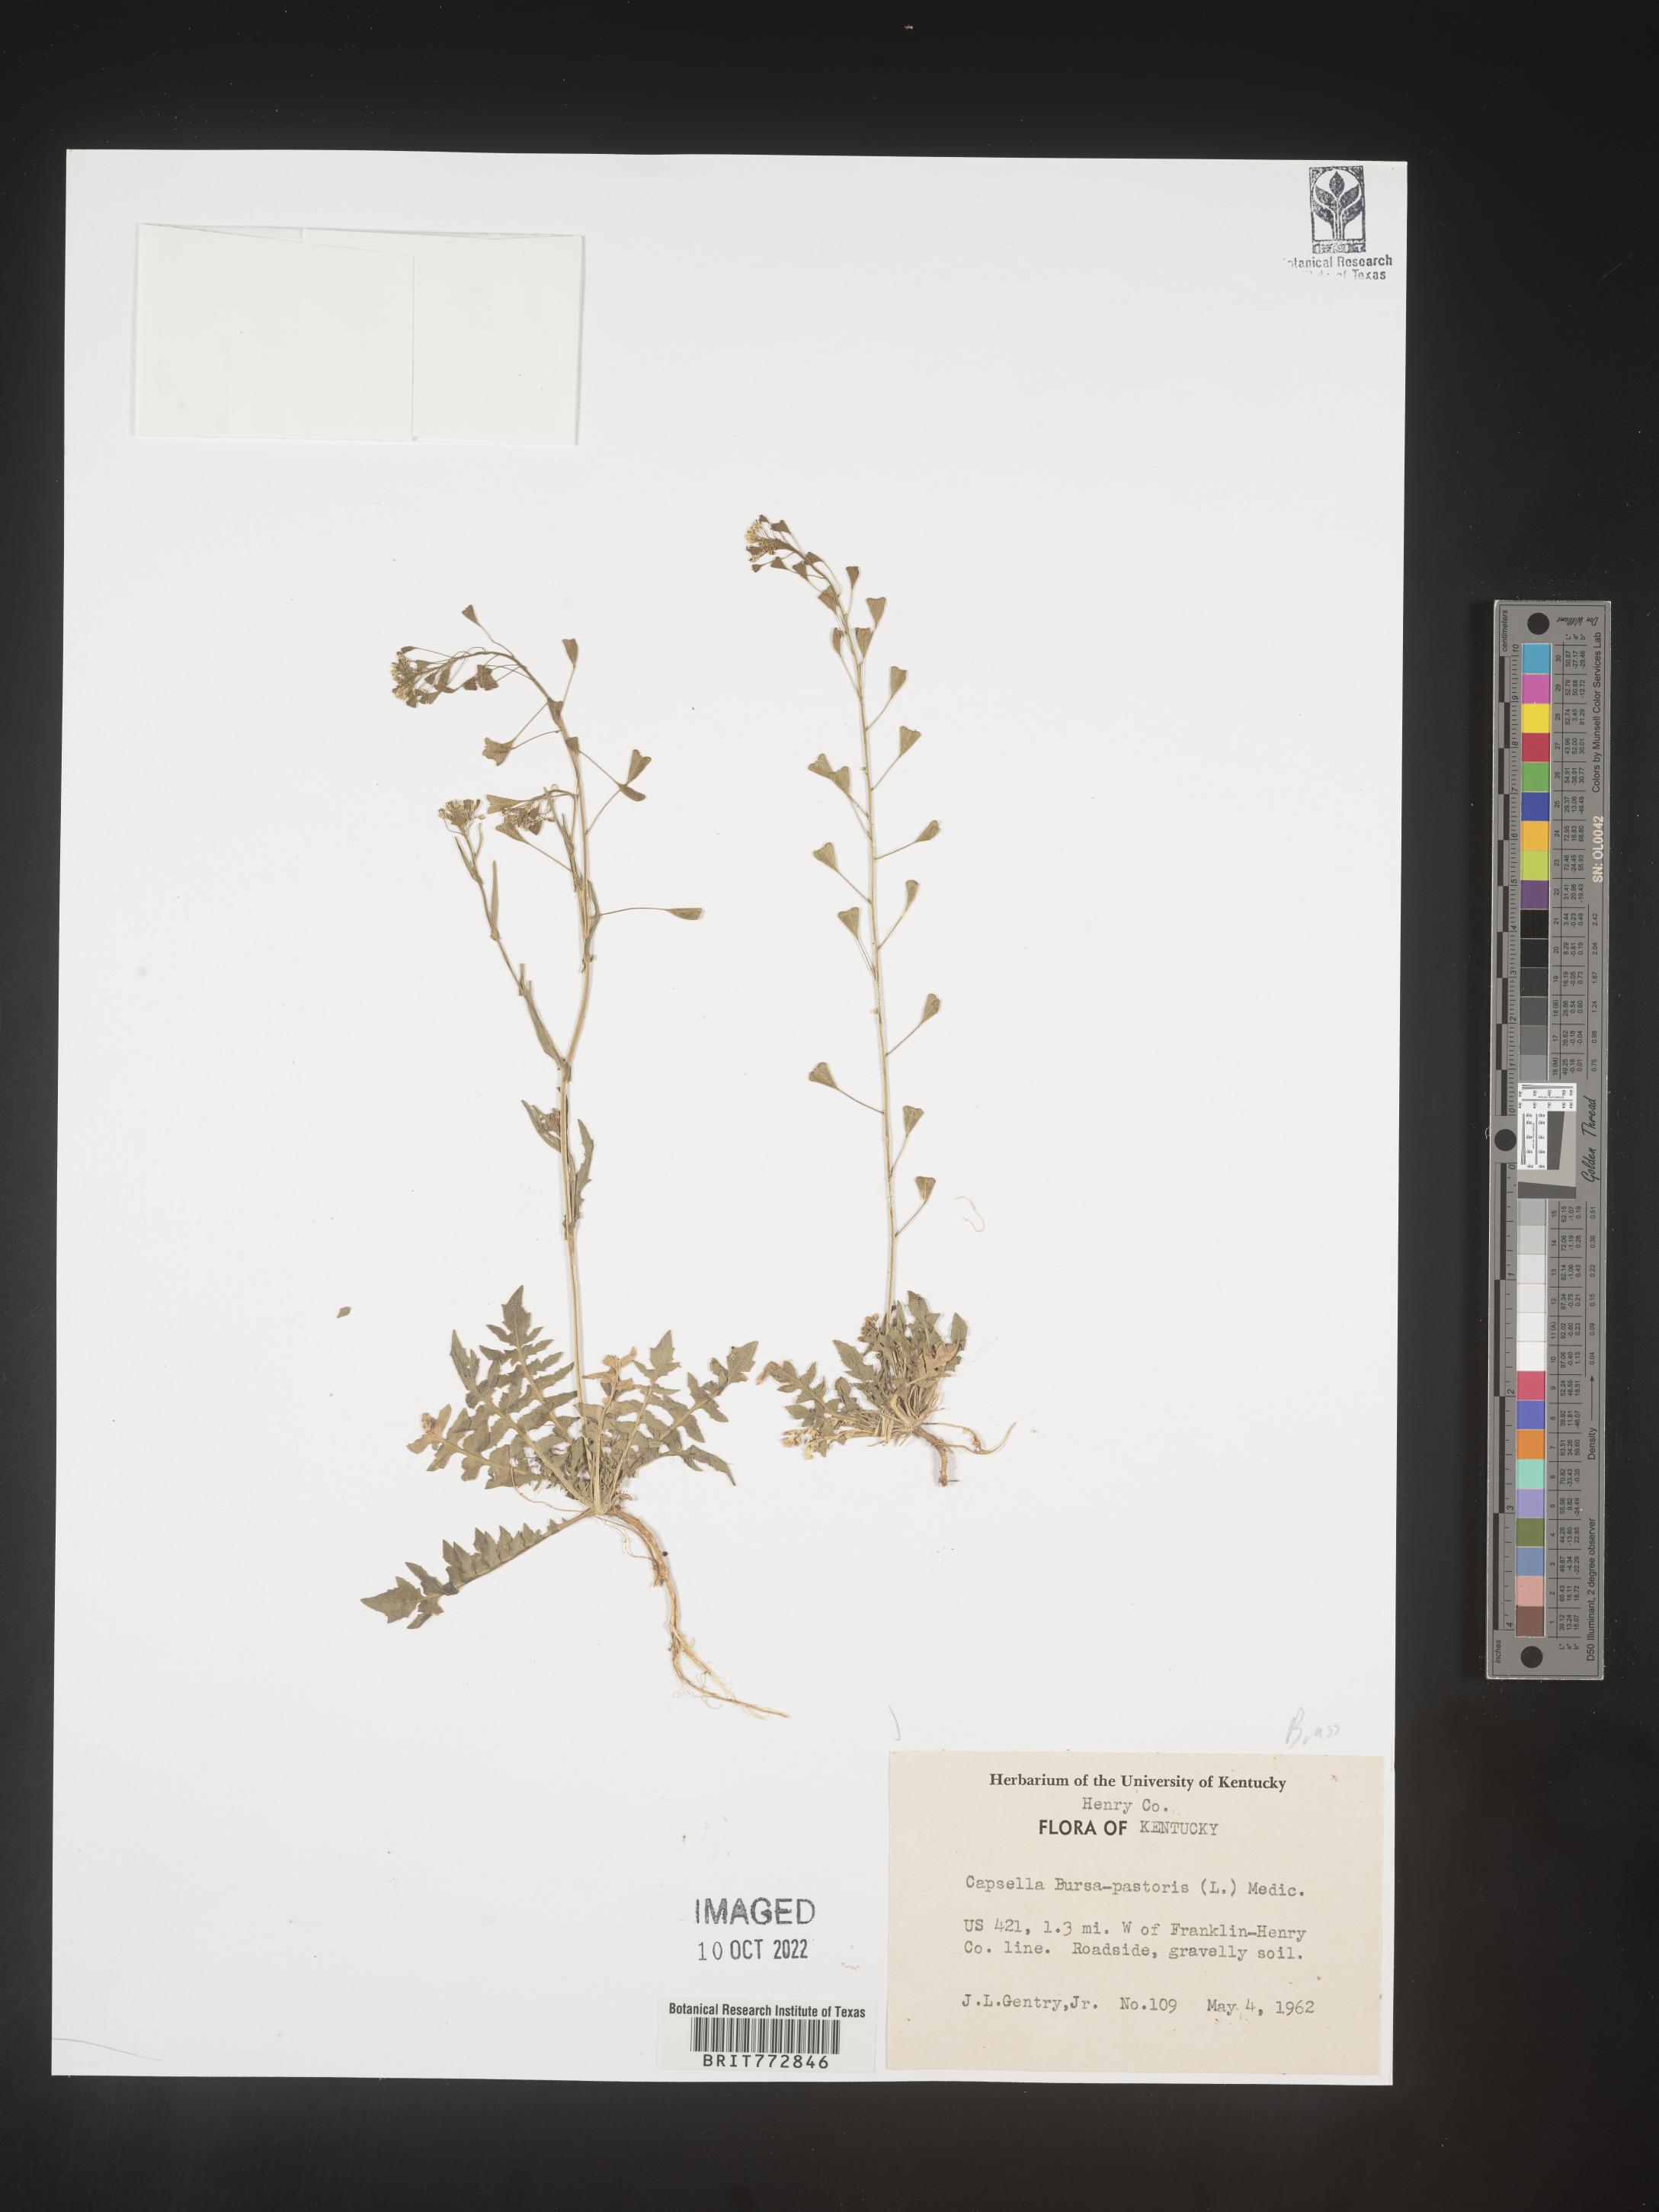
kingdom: Plantae
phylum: Tracheophyta
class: Magnoliopsida
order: Brassicales
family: Brassicaceae
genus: Capsella
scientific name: Capsella bursa-pastoris
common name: Shepherd's purse
